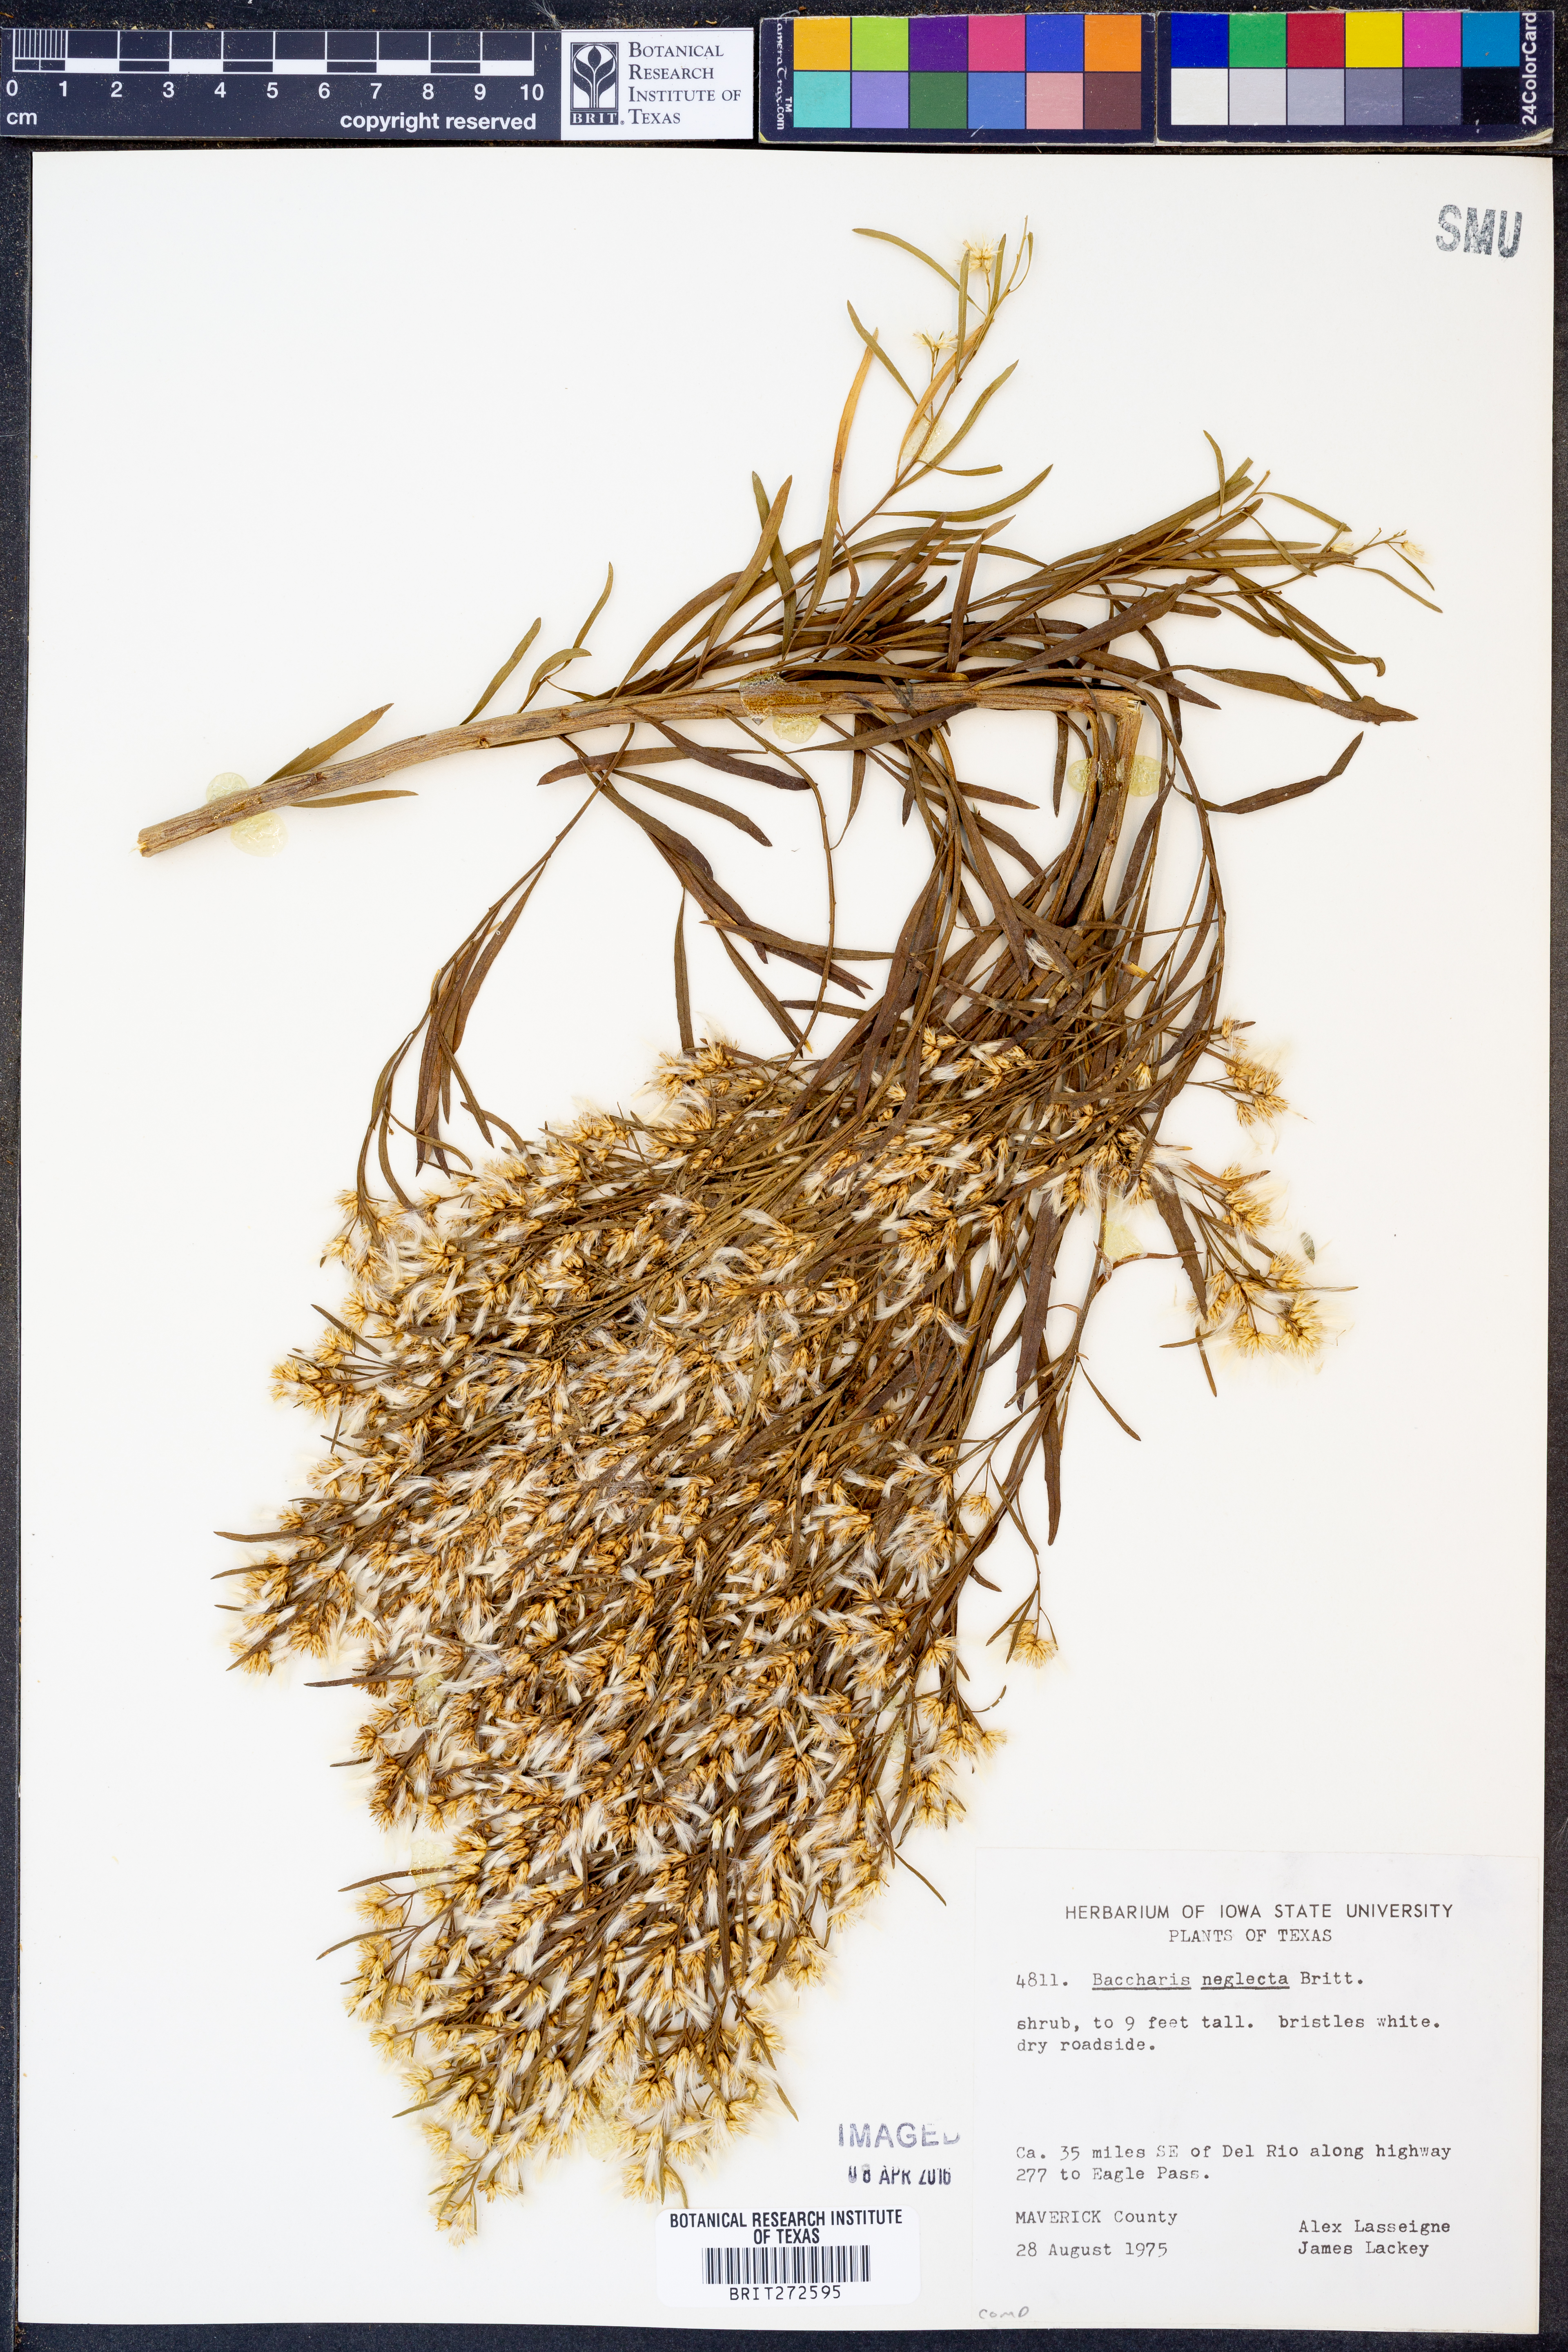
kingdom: Plantae
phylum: Tracheophyta
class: Magnoliopsida
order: Asterales
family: Asteraceae
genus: Baccharis
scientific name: Baccharis neglecta
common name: Roosevelt-weed
